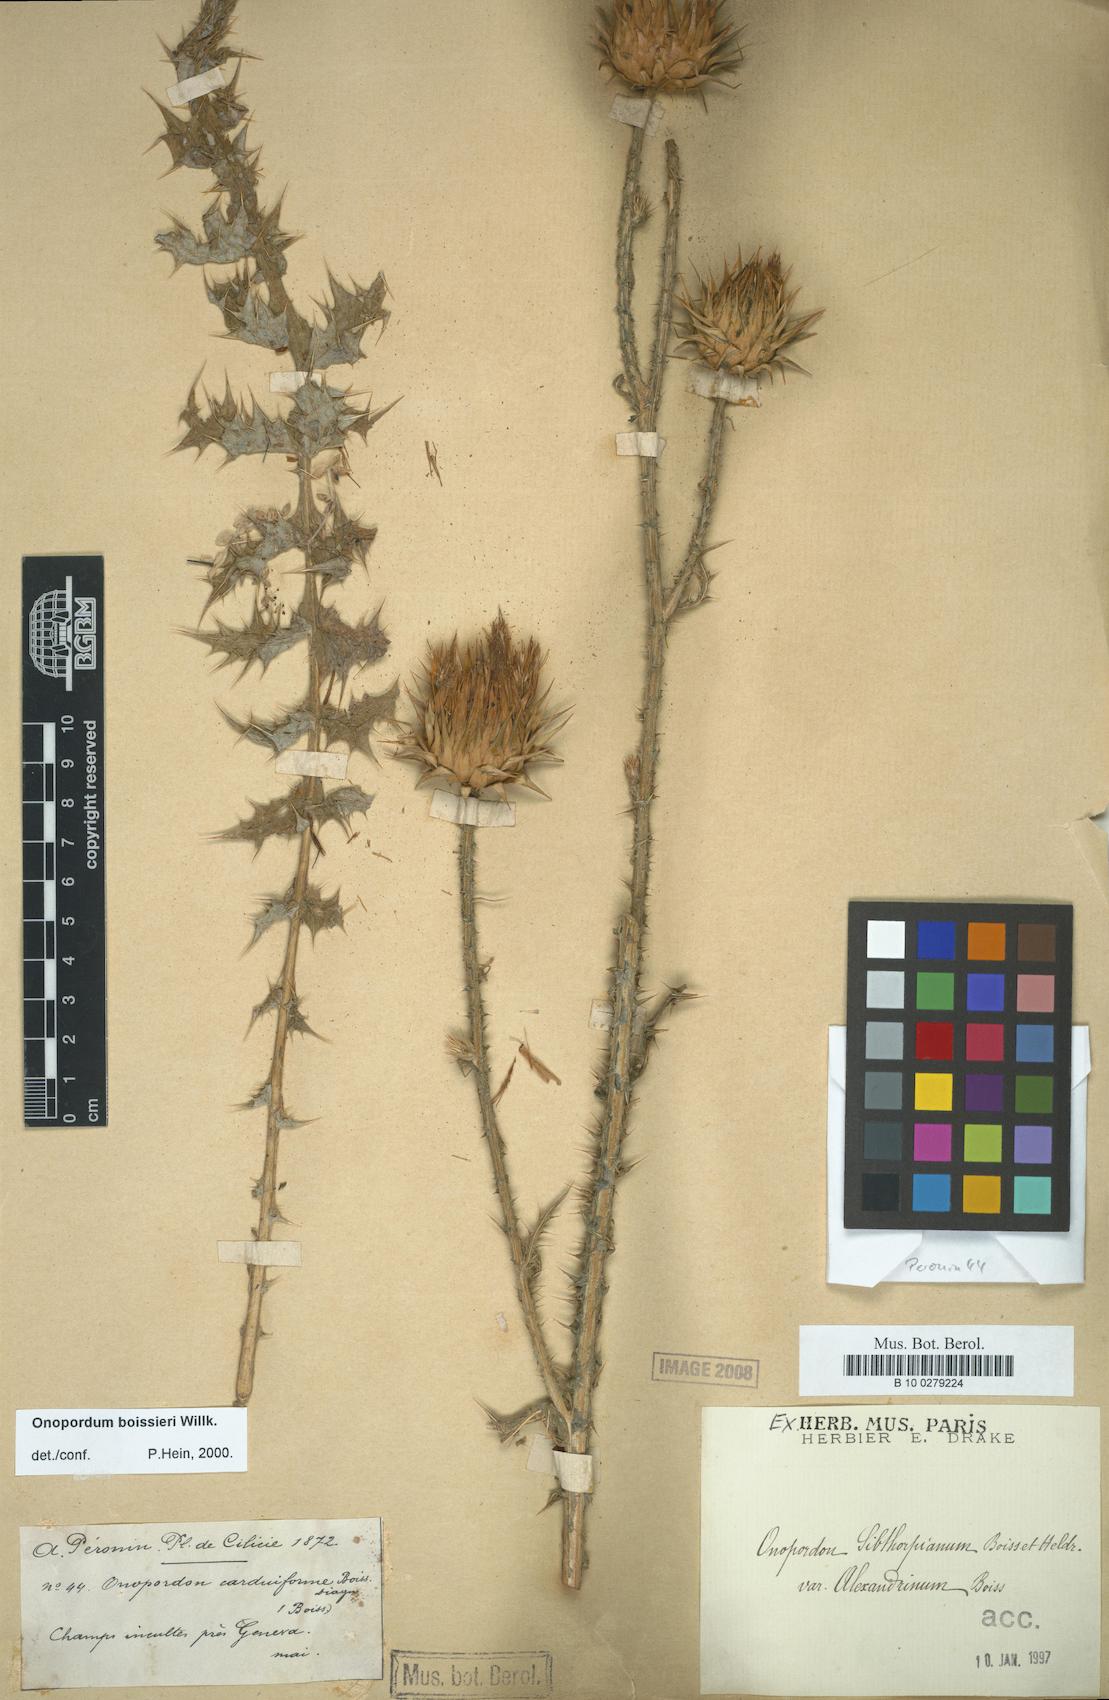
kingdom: Plantae
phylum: Tracheophyta
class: Magnoliopsida
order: Asterales
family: Asteraceae
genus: Onopordum
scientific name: Onopordum bracteatum
